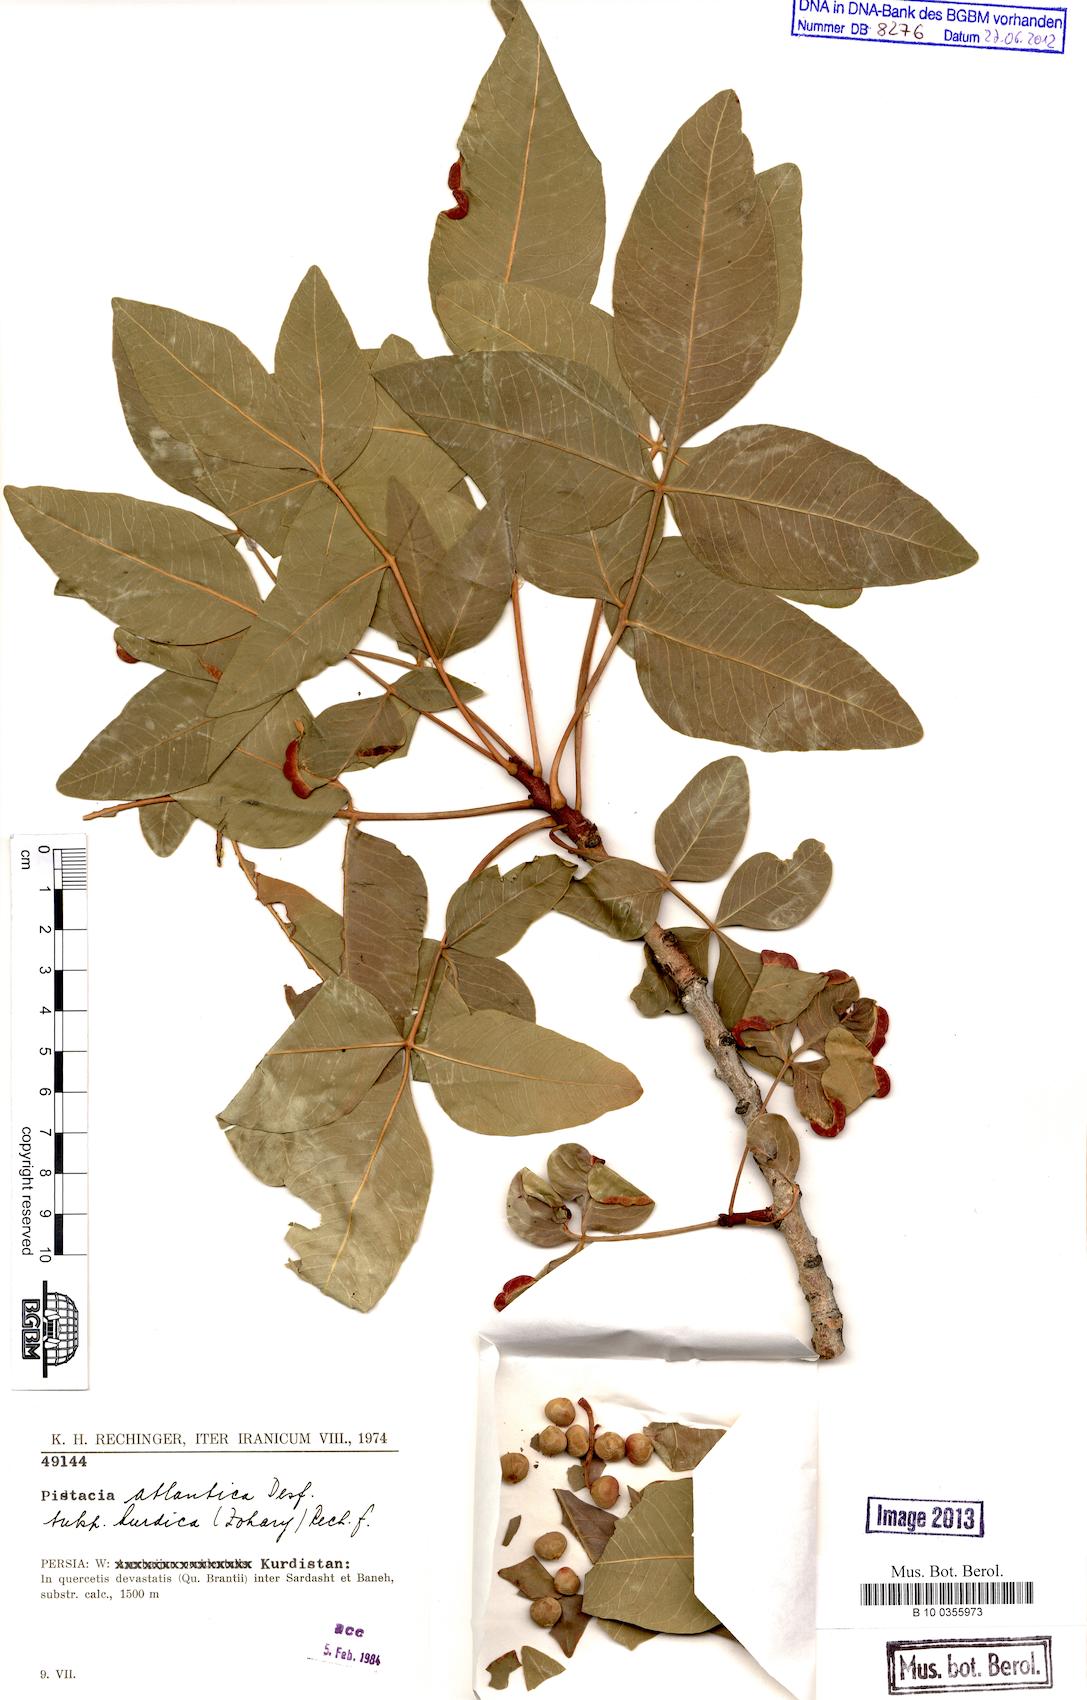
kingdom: Plantae
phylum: Tracheophyta
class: Magnoliopsida
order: Sapindales
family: Anacardiaceae
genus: Pistacia
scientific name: Pistacia eurycarpa
